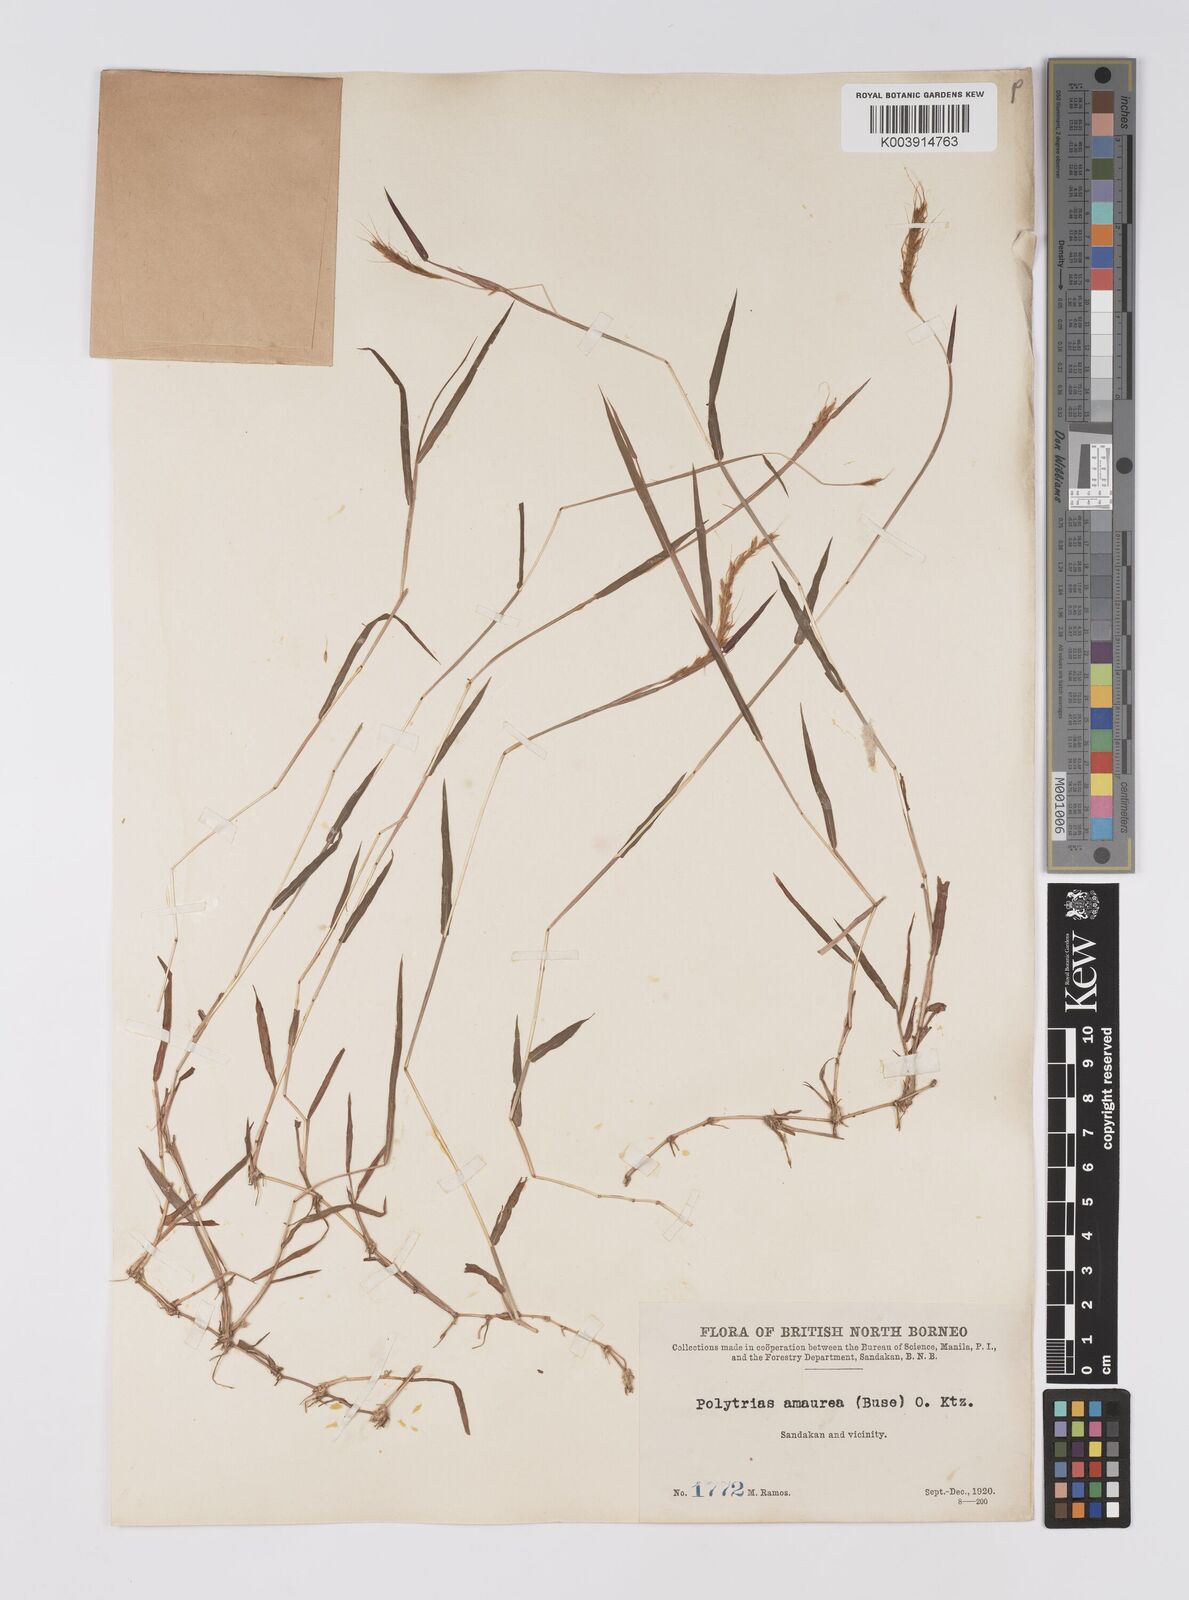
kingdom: Plantae
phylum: Tracheophyta
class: Liliopsida
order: Poales
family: Poaceae
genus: Polytrias
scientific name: Polytrias
